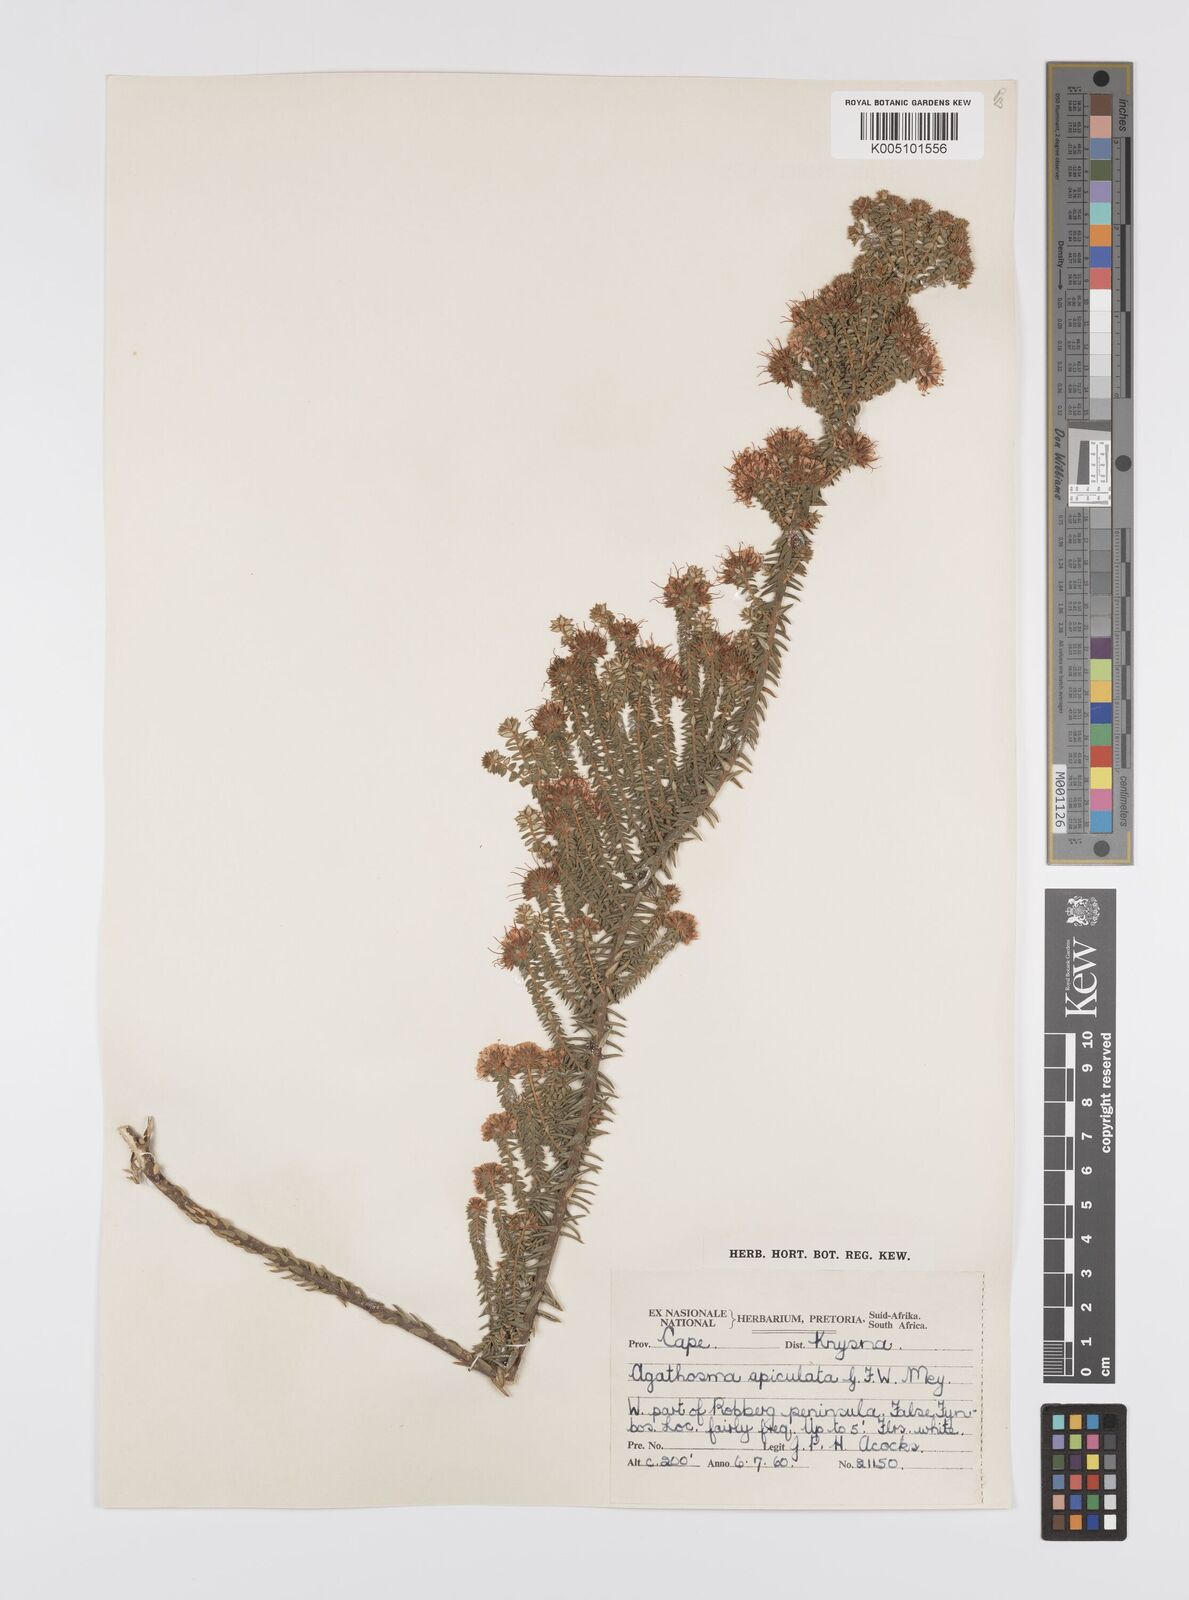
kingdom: Plantae
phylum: Tracheophyta
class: Magnoliopsida
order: Sapindales
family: Rutaceae
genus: Agathosma
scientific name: Agathosma
